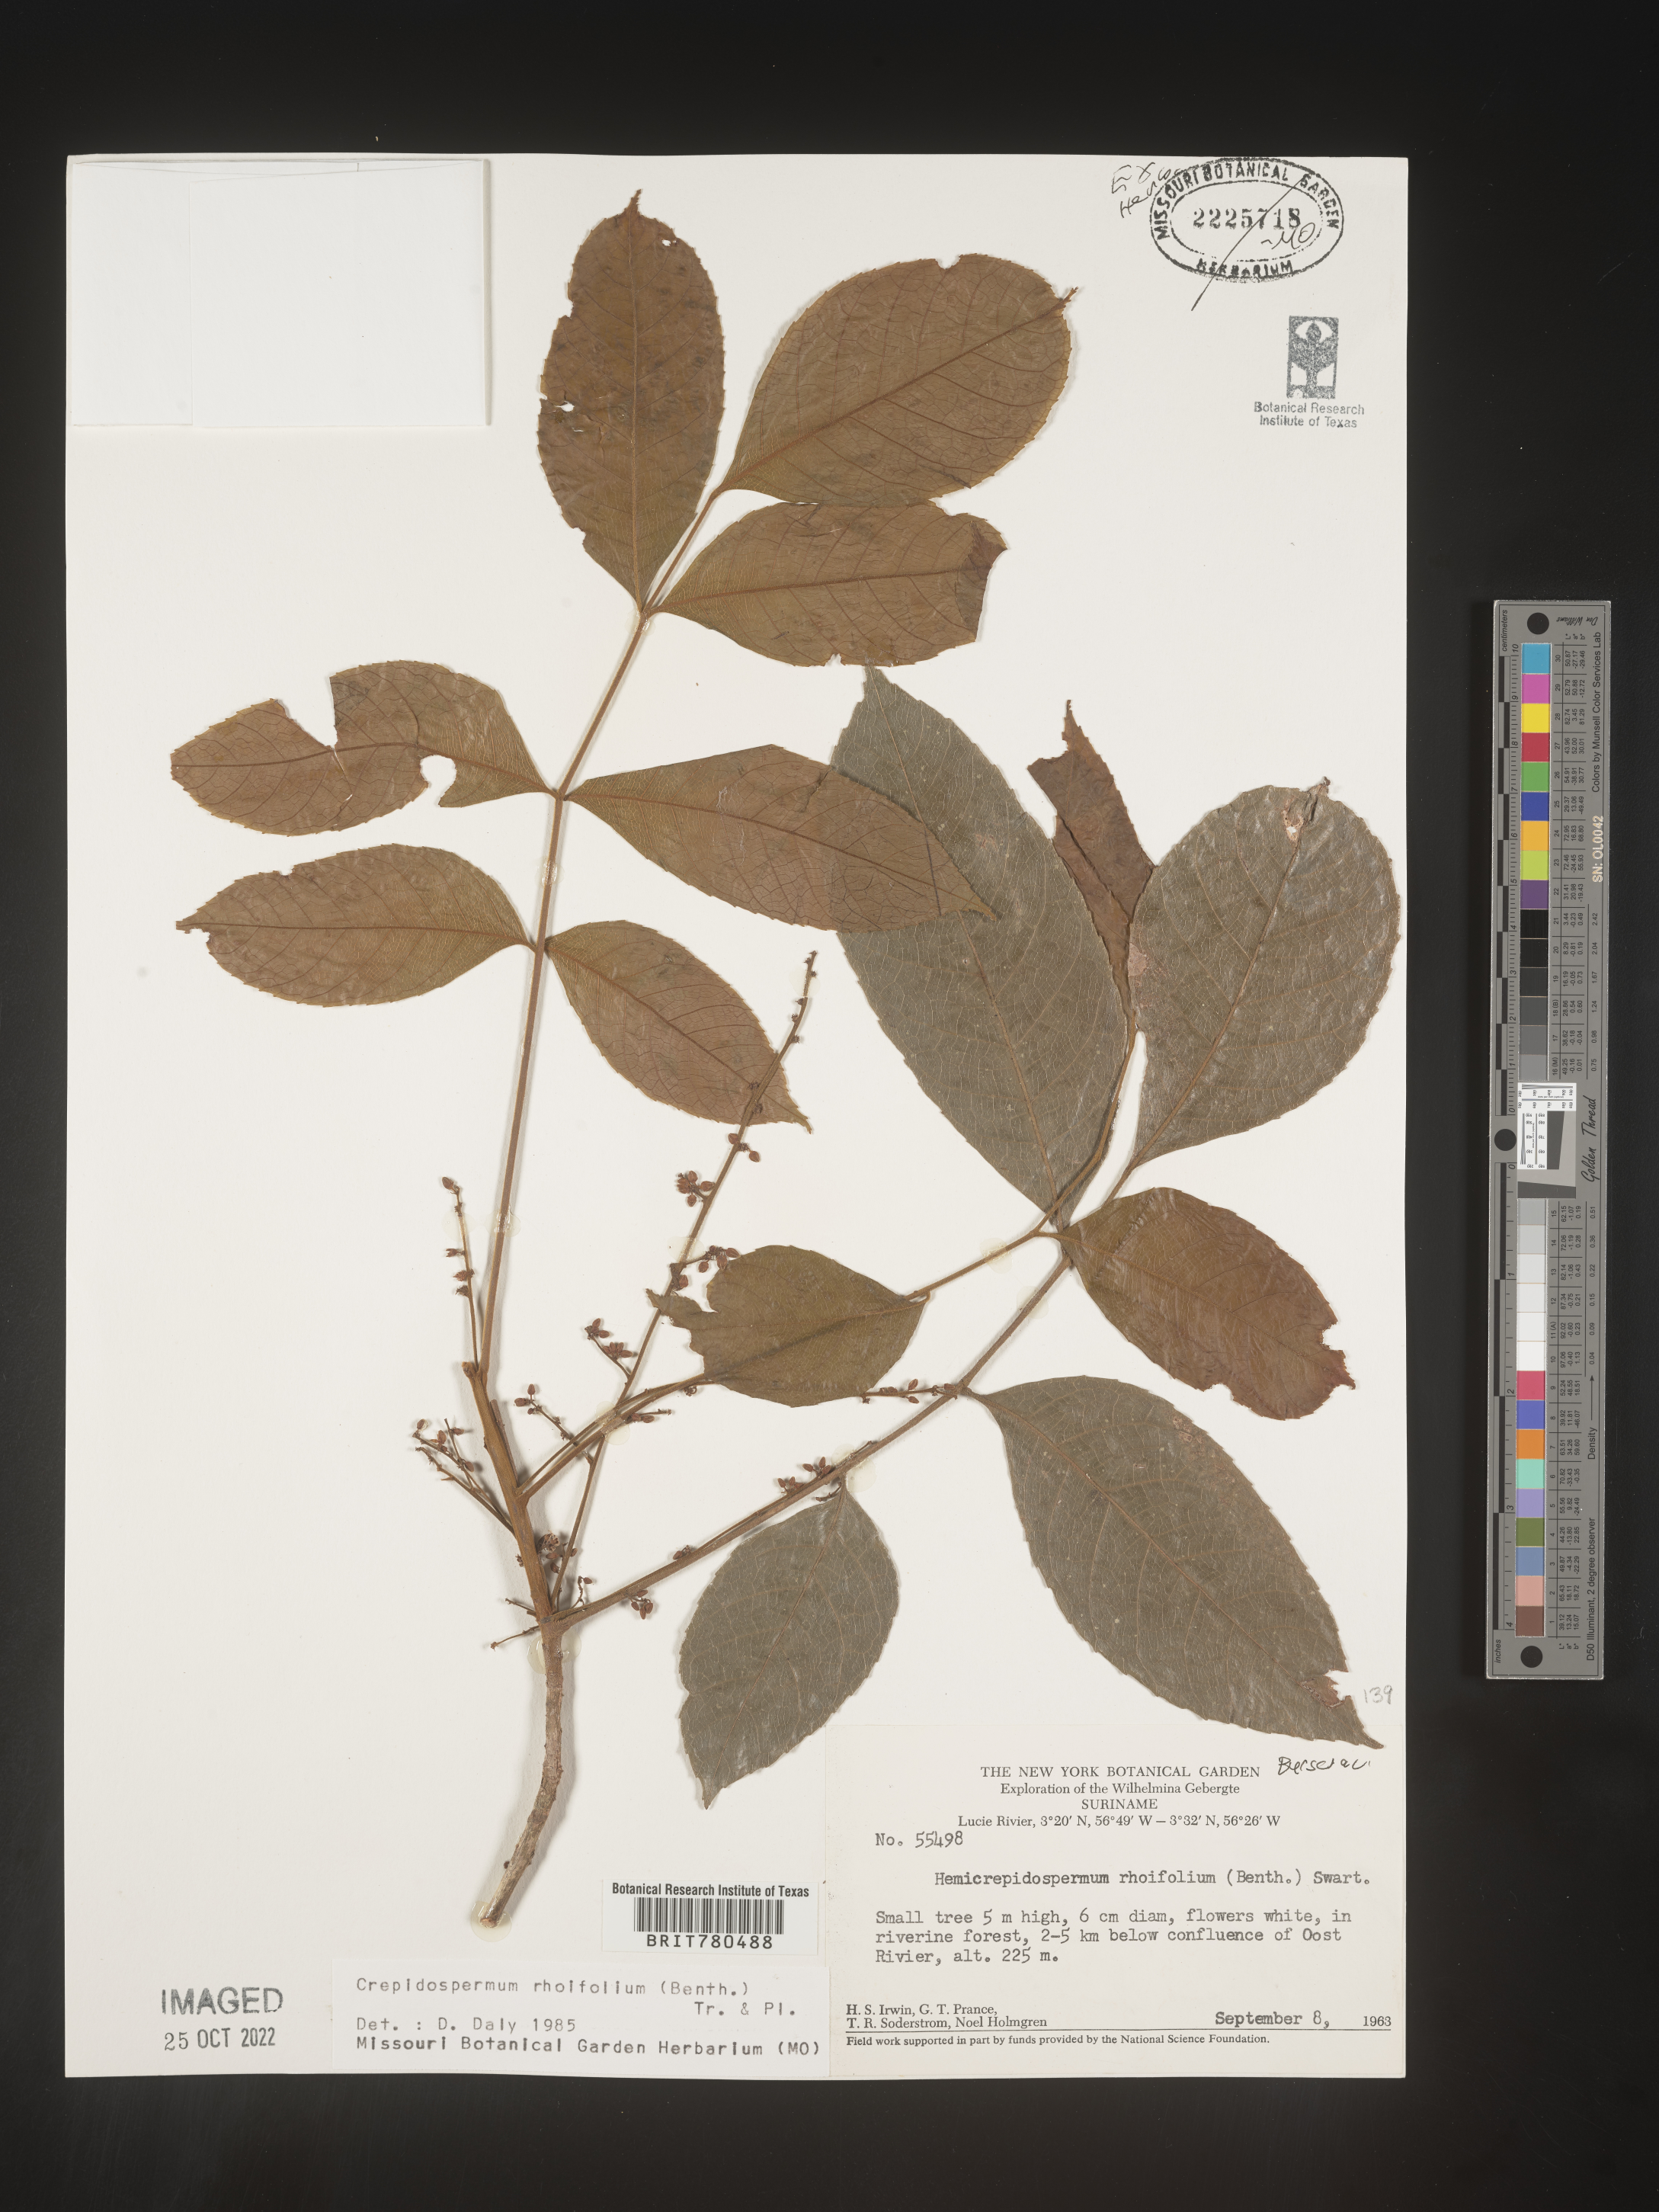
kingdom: Plantae
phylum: Tracheophyta
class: Magnoliopsida
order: Sapindales
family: Burseraceae
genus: Crepidospermum
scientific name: Crepidospermum
